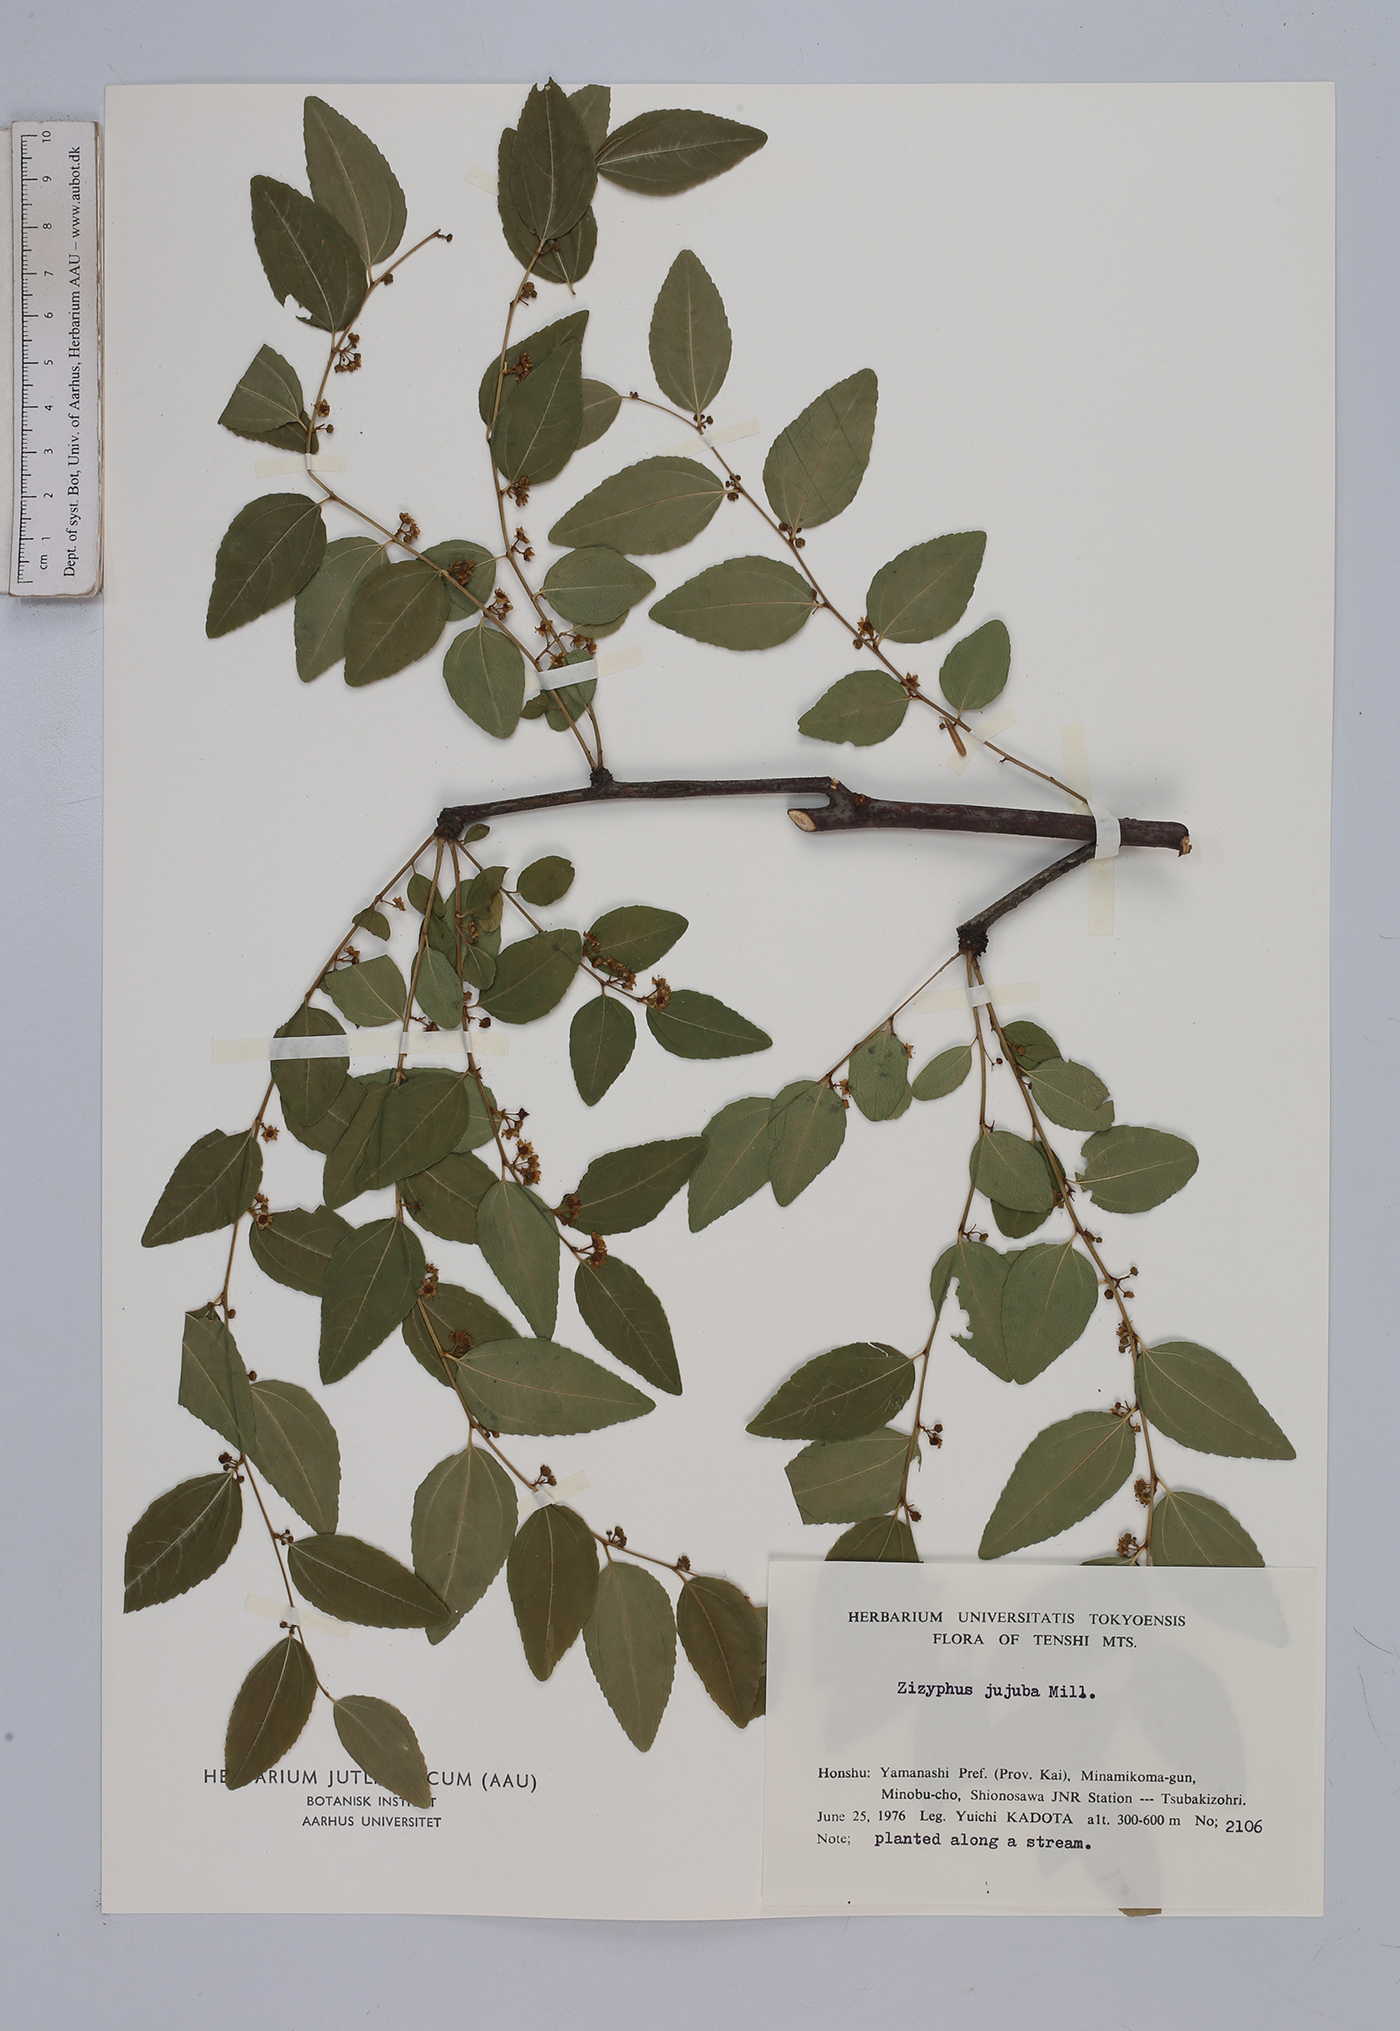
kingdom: Plantae
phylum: Tracheophyta
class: Magnoliopsida
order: Rosales
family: Rhamnaceae
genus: Ziziphus
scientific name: Ziziphus jujuba
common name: Jujube red date
